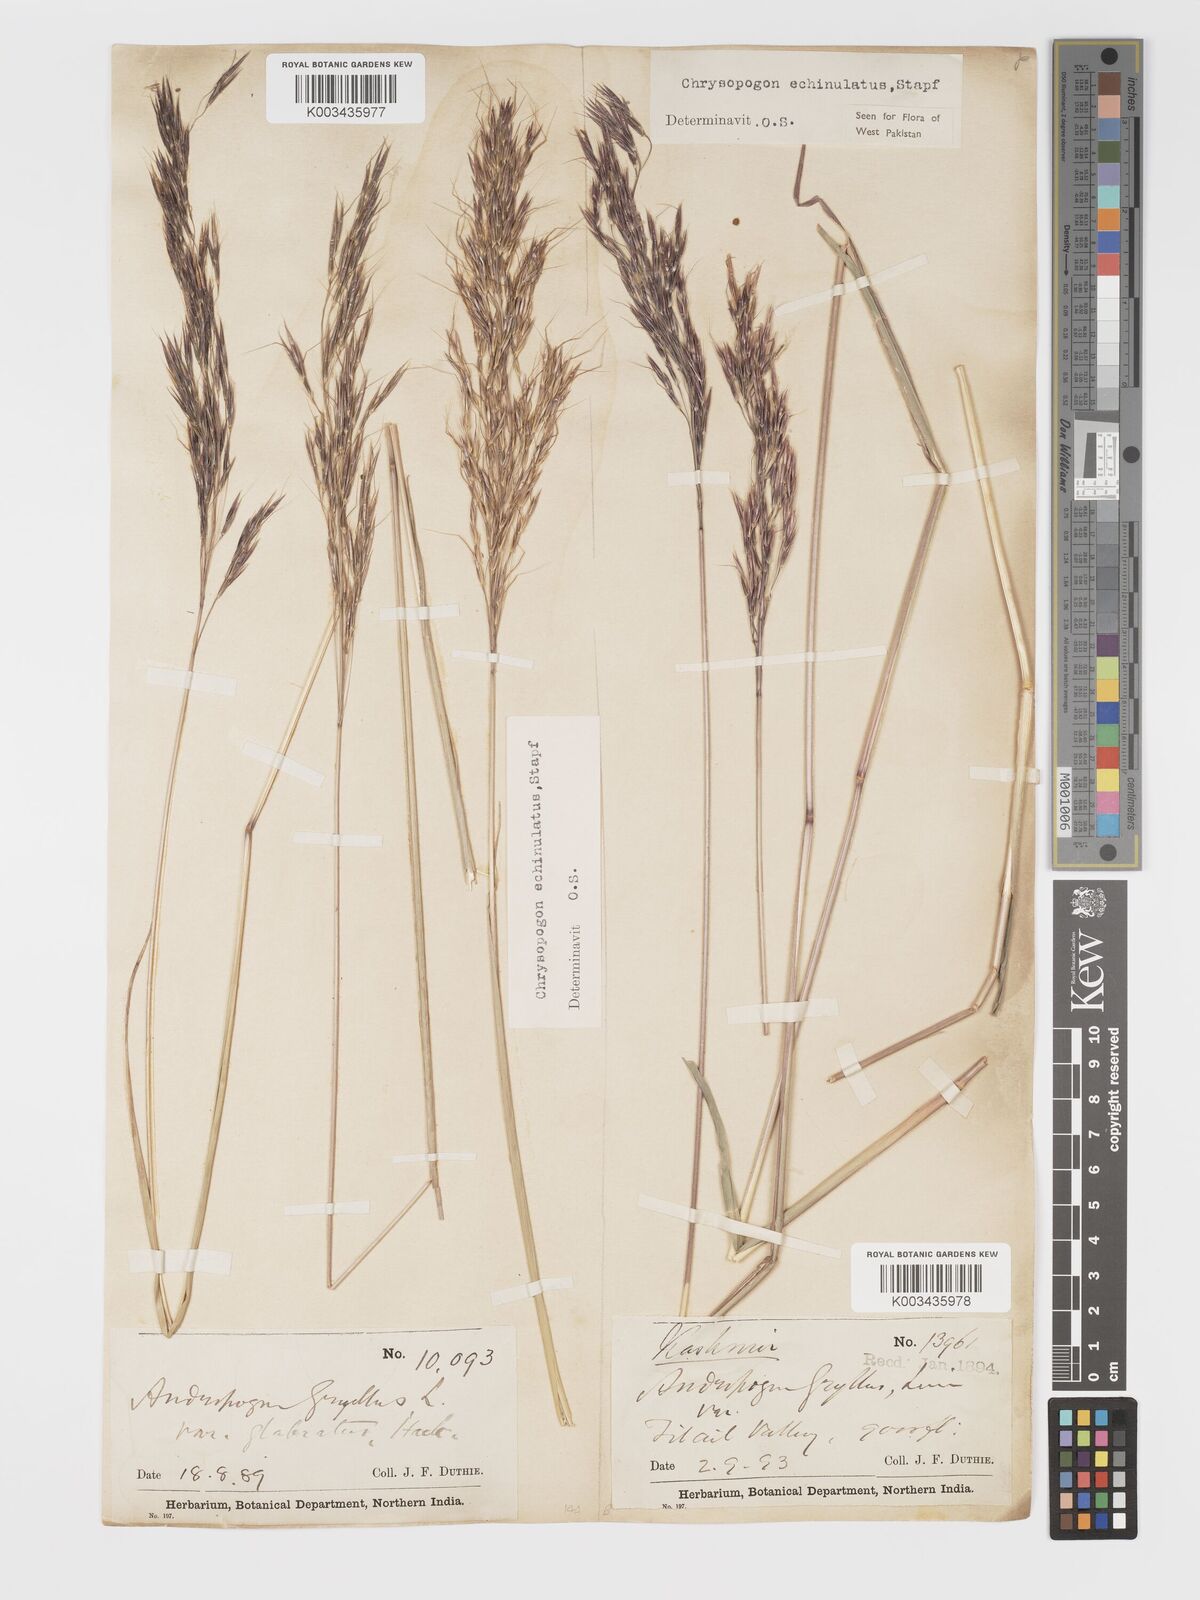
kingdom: Plantae
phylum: Tracheophyta
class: Liliopsida
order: Poales
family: Poaceae
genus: Chrysopogon
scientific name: Chrysopogon gryllus
